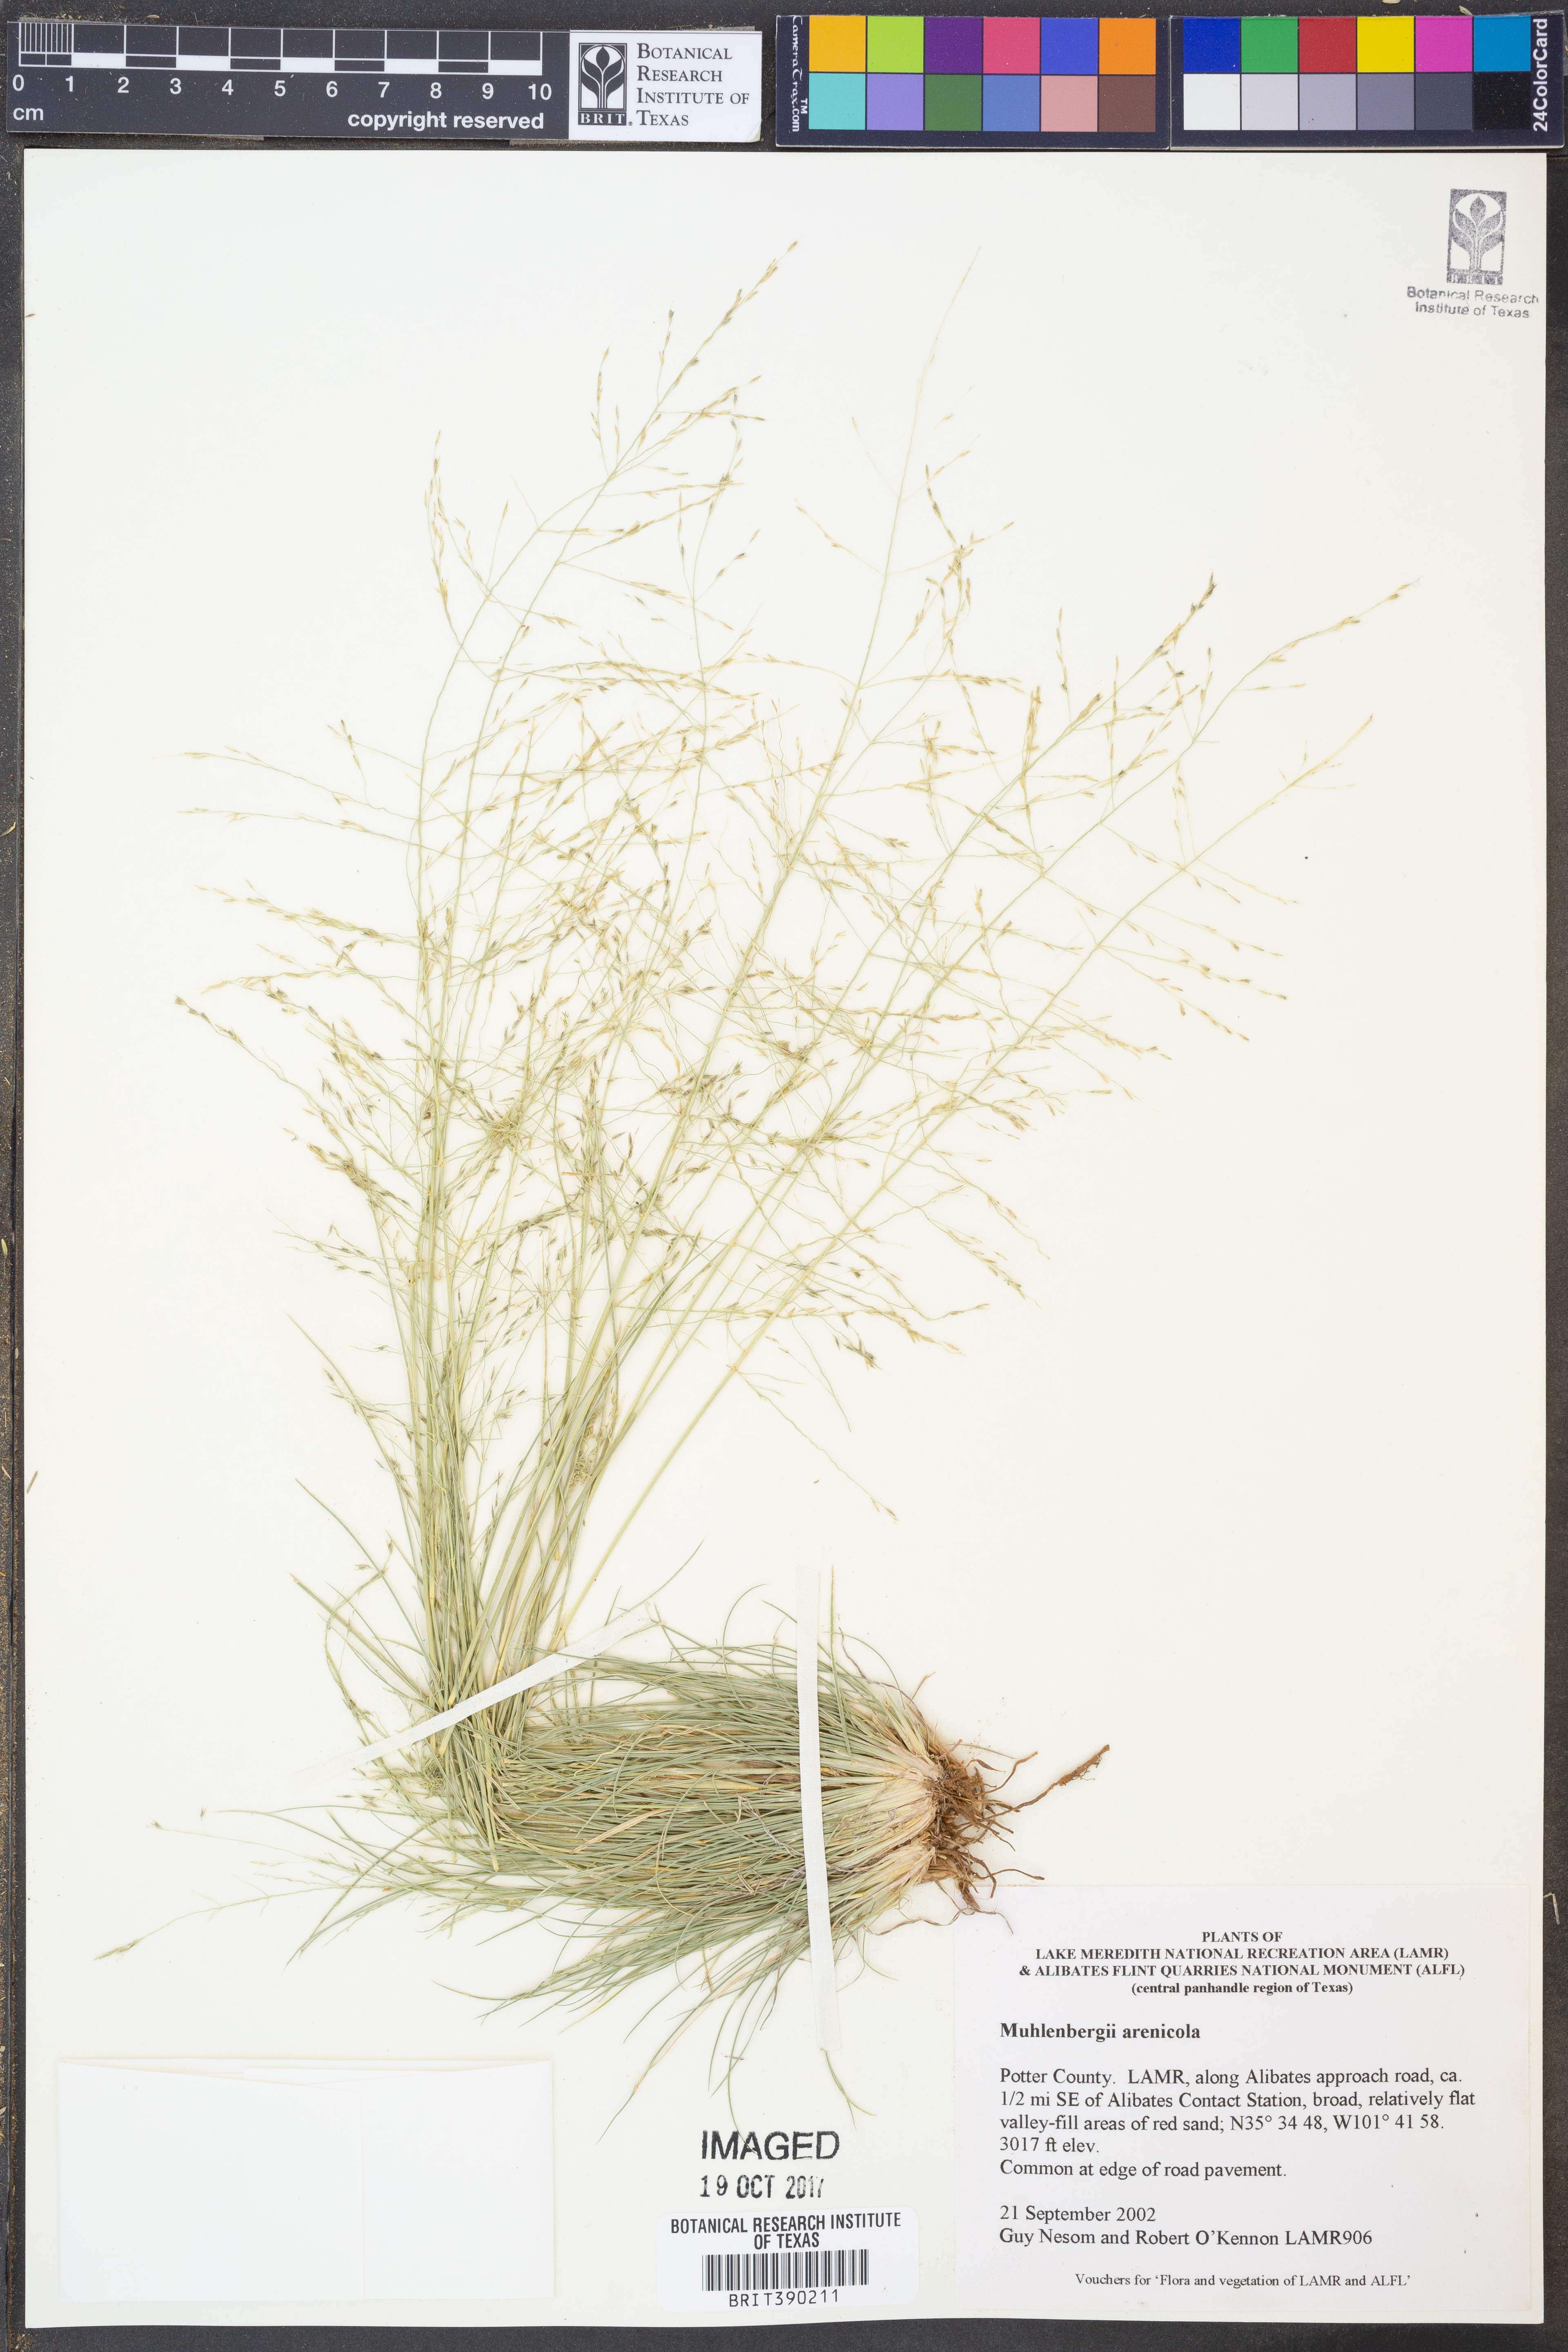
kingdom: Plantae
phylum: Tracheophyta
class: Liliopsida
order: Poales
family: Poaceae
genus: Muhlenbergia
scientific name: Muhlenbergia arenicola
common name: Sand muhly
